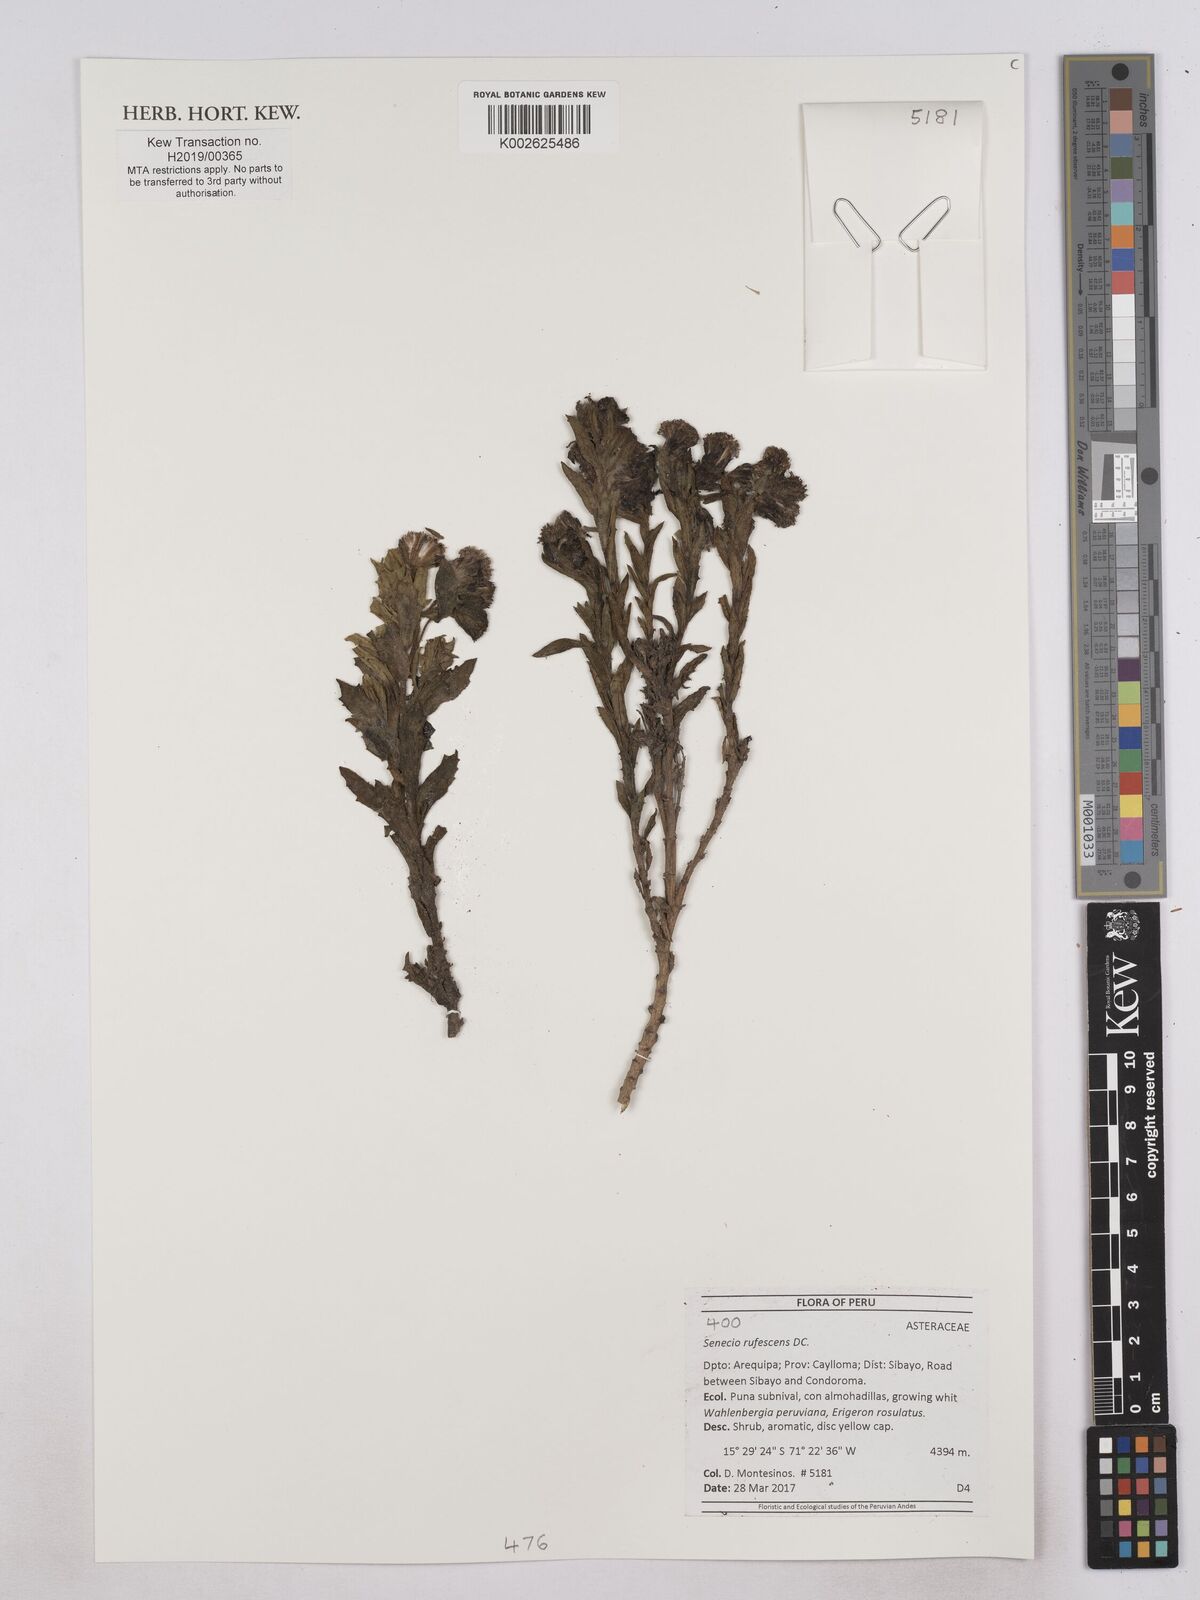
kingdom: Plantae
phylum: Tracheophyta
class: Magnoliopsida
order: Asterales
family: Asteraceae
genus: Senecio
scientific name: Senecio
